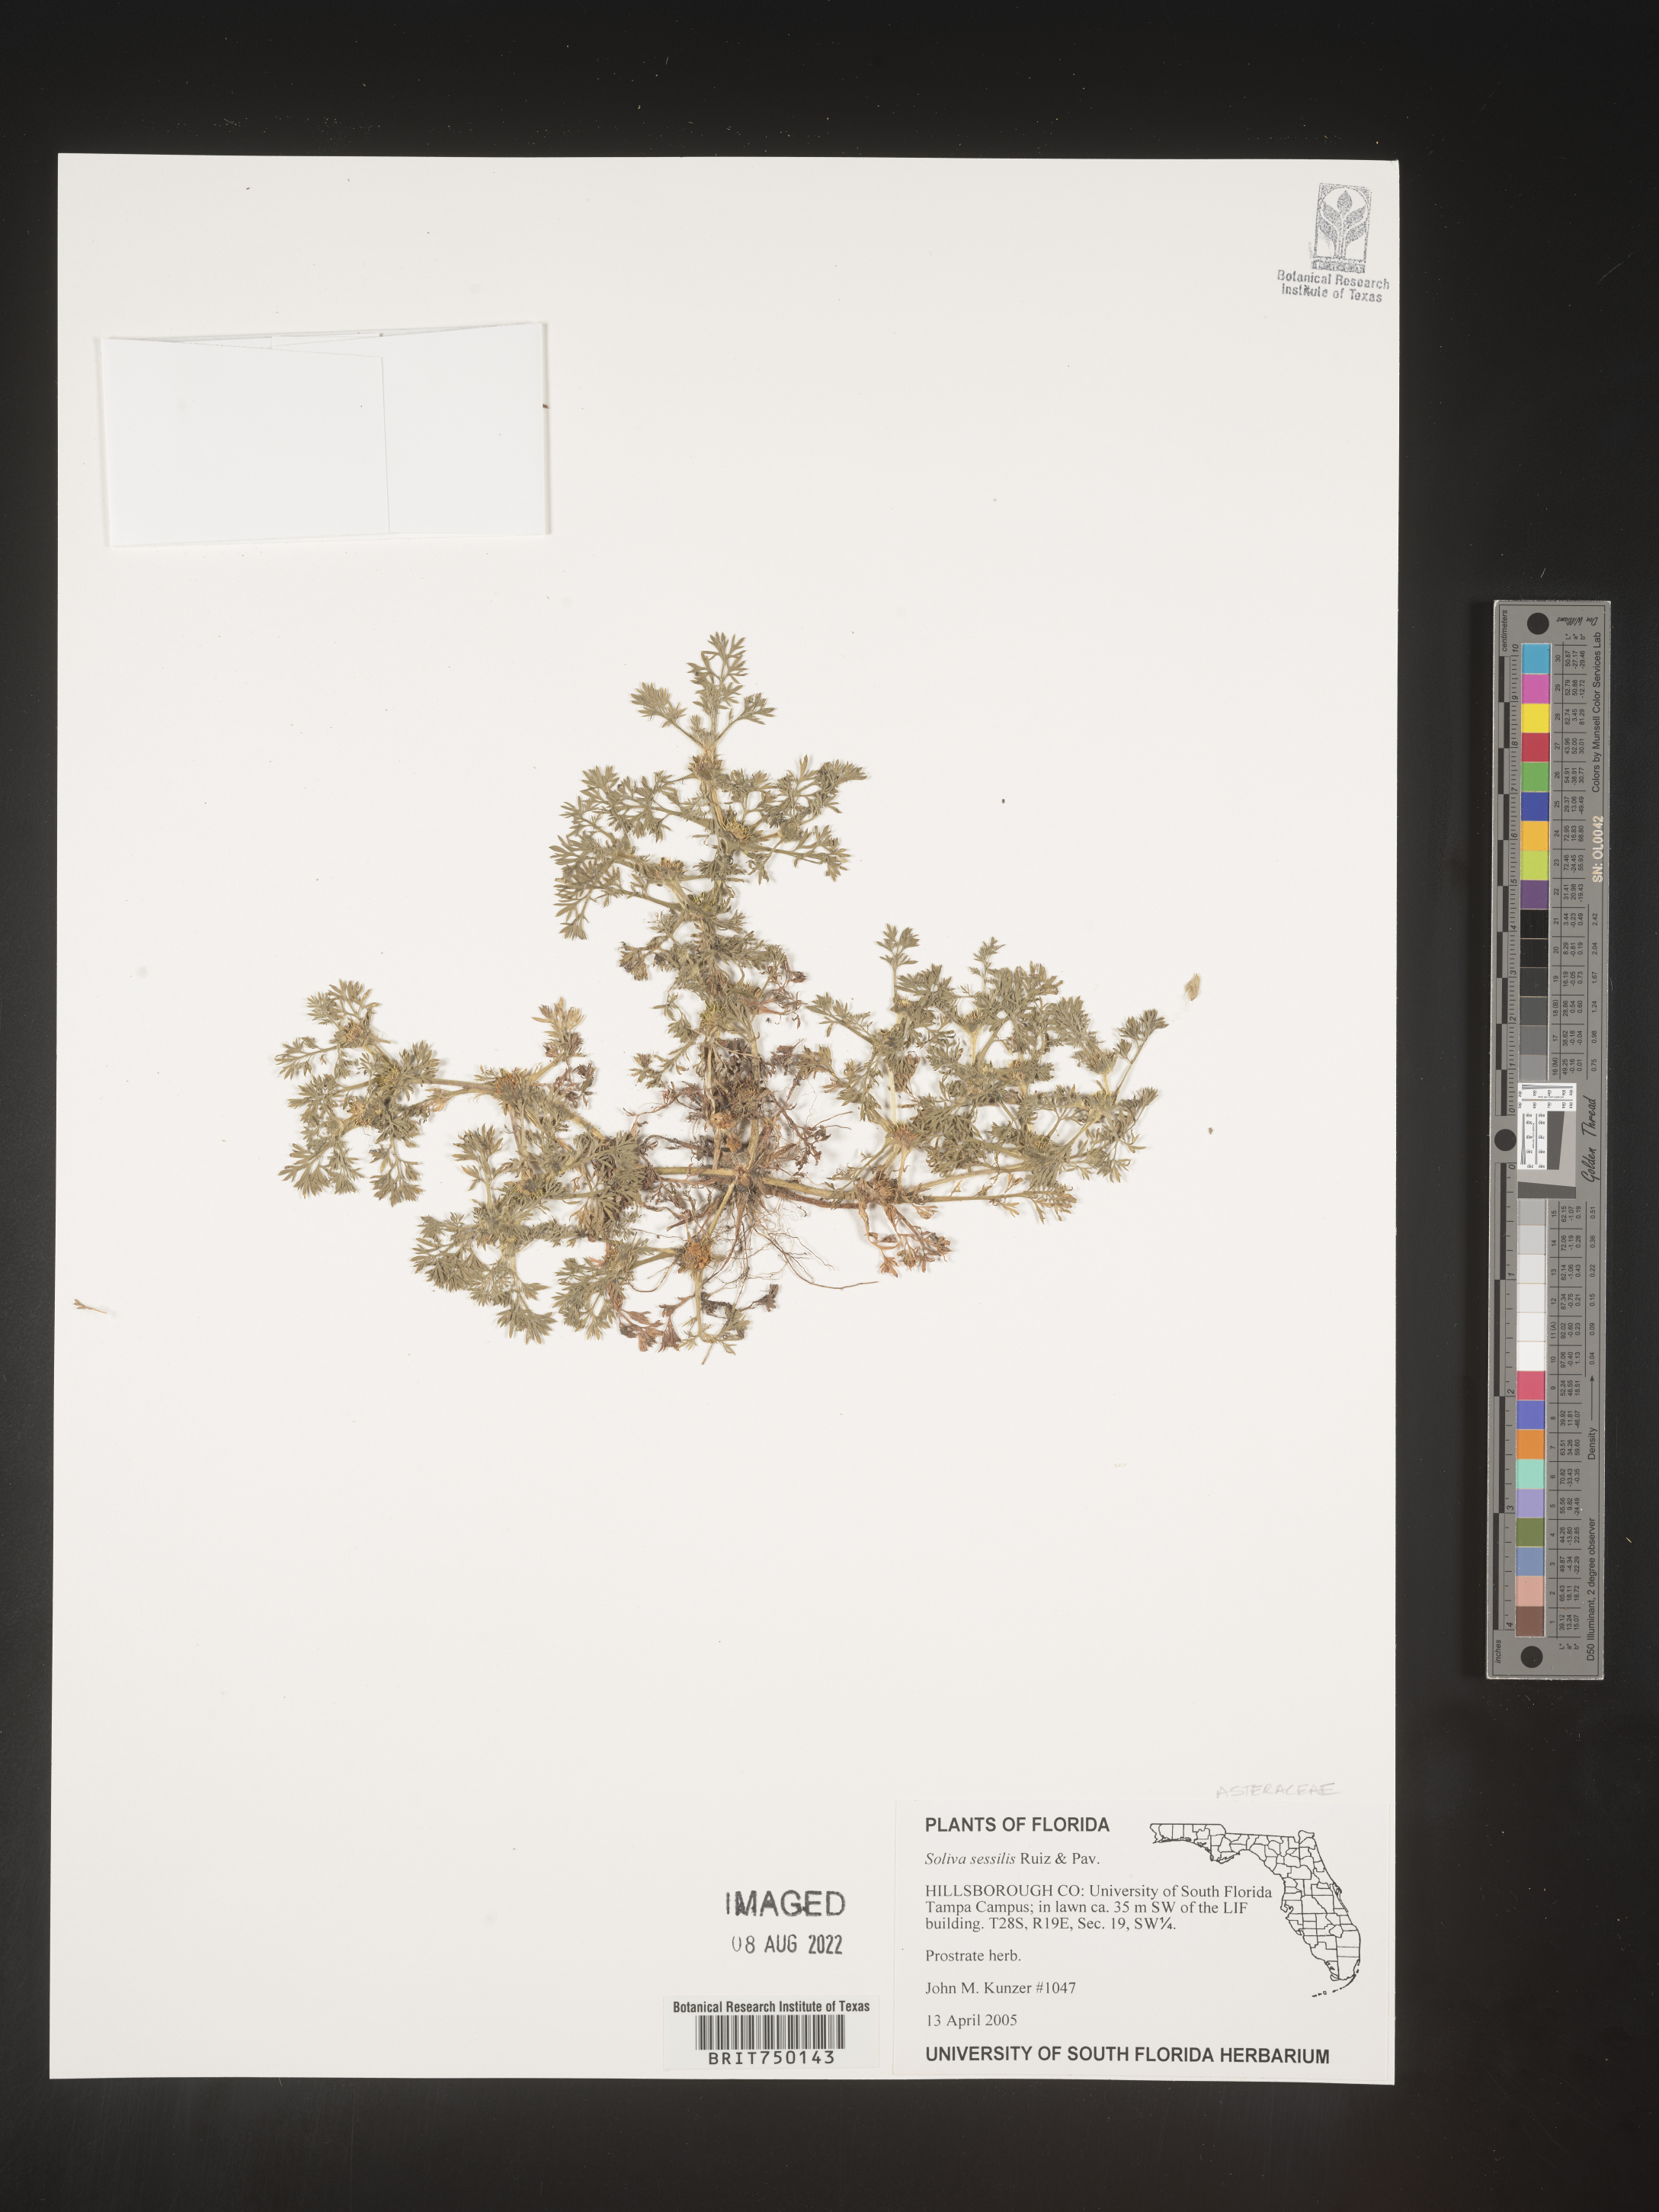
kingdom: Plantae
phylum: Tracheophyta
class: Magnoliopsida
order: Asterales
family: Asteraceae
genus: Soliva
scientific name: Soliva
